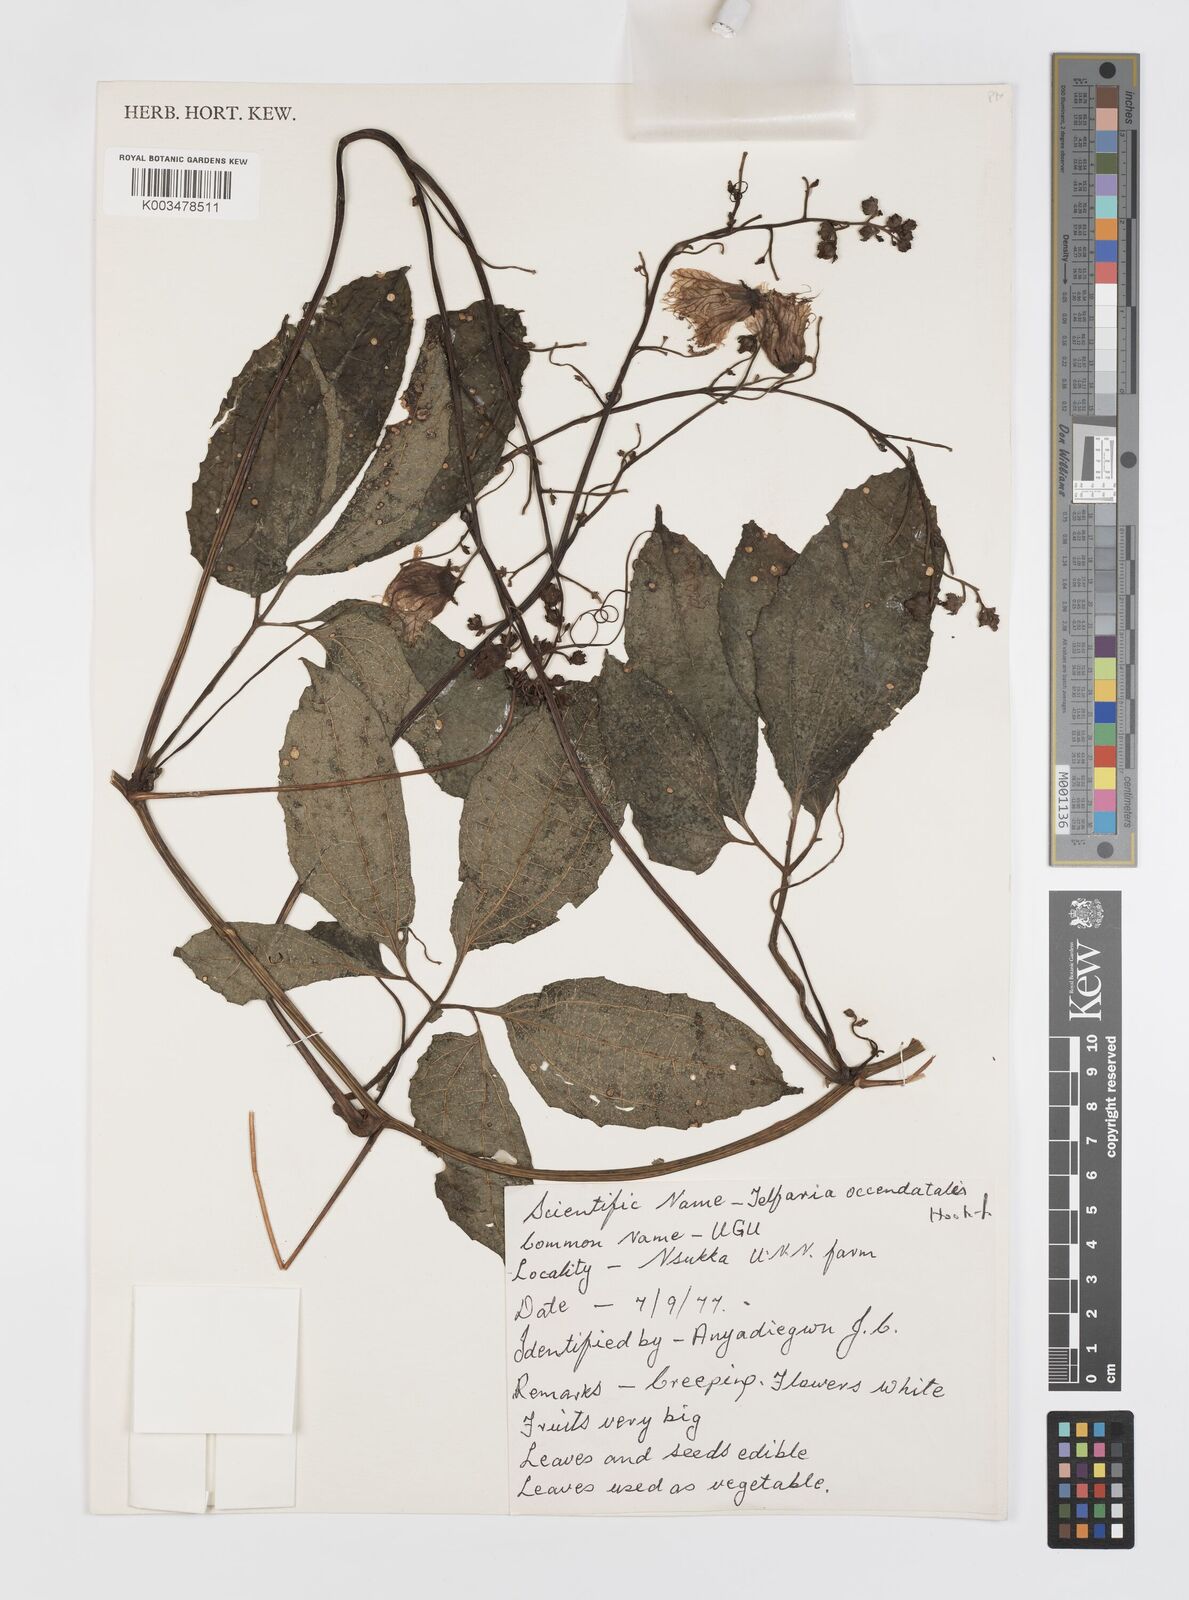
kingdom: Plantae
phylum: Tracheophyta
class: Magnoliopsida
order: Cucurbitales
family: Cucurbitaceae
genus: Telfairia
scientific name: Telfairia occidentalis
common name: Oysternut
